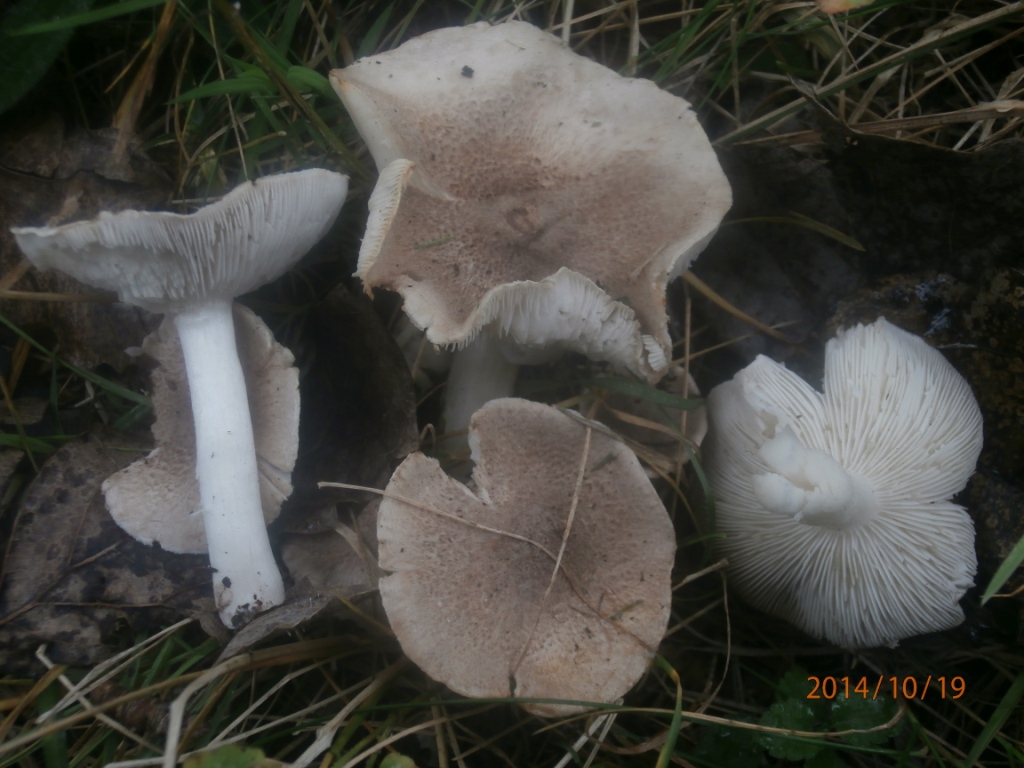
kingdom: Fungi
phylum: Basidiomycota
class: Agaricomycetes
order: Agaricales
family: Tricholomataceae
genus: Tricholoma
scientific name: Tricholoma scalpturatum
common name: gulplettet ridderhat
